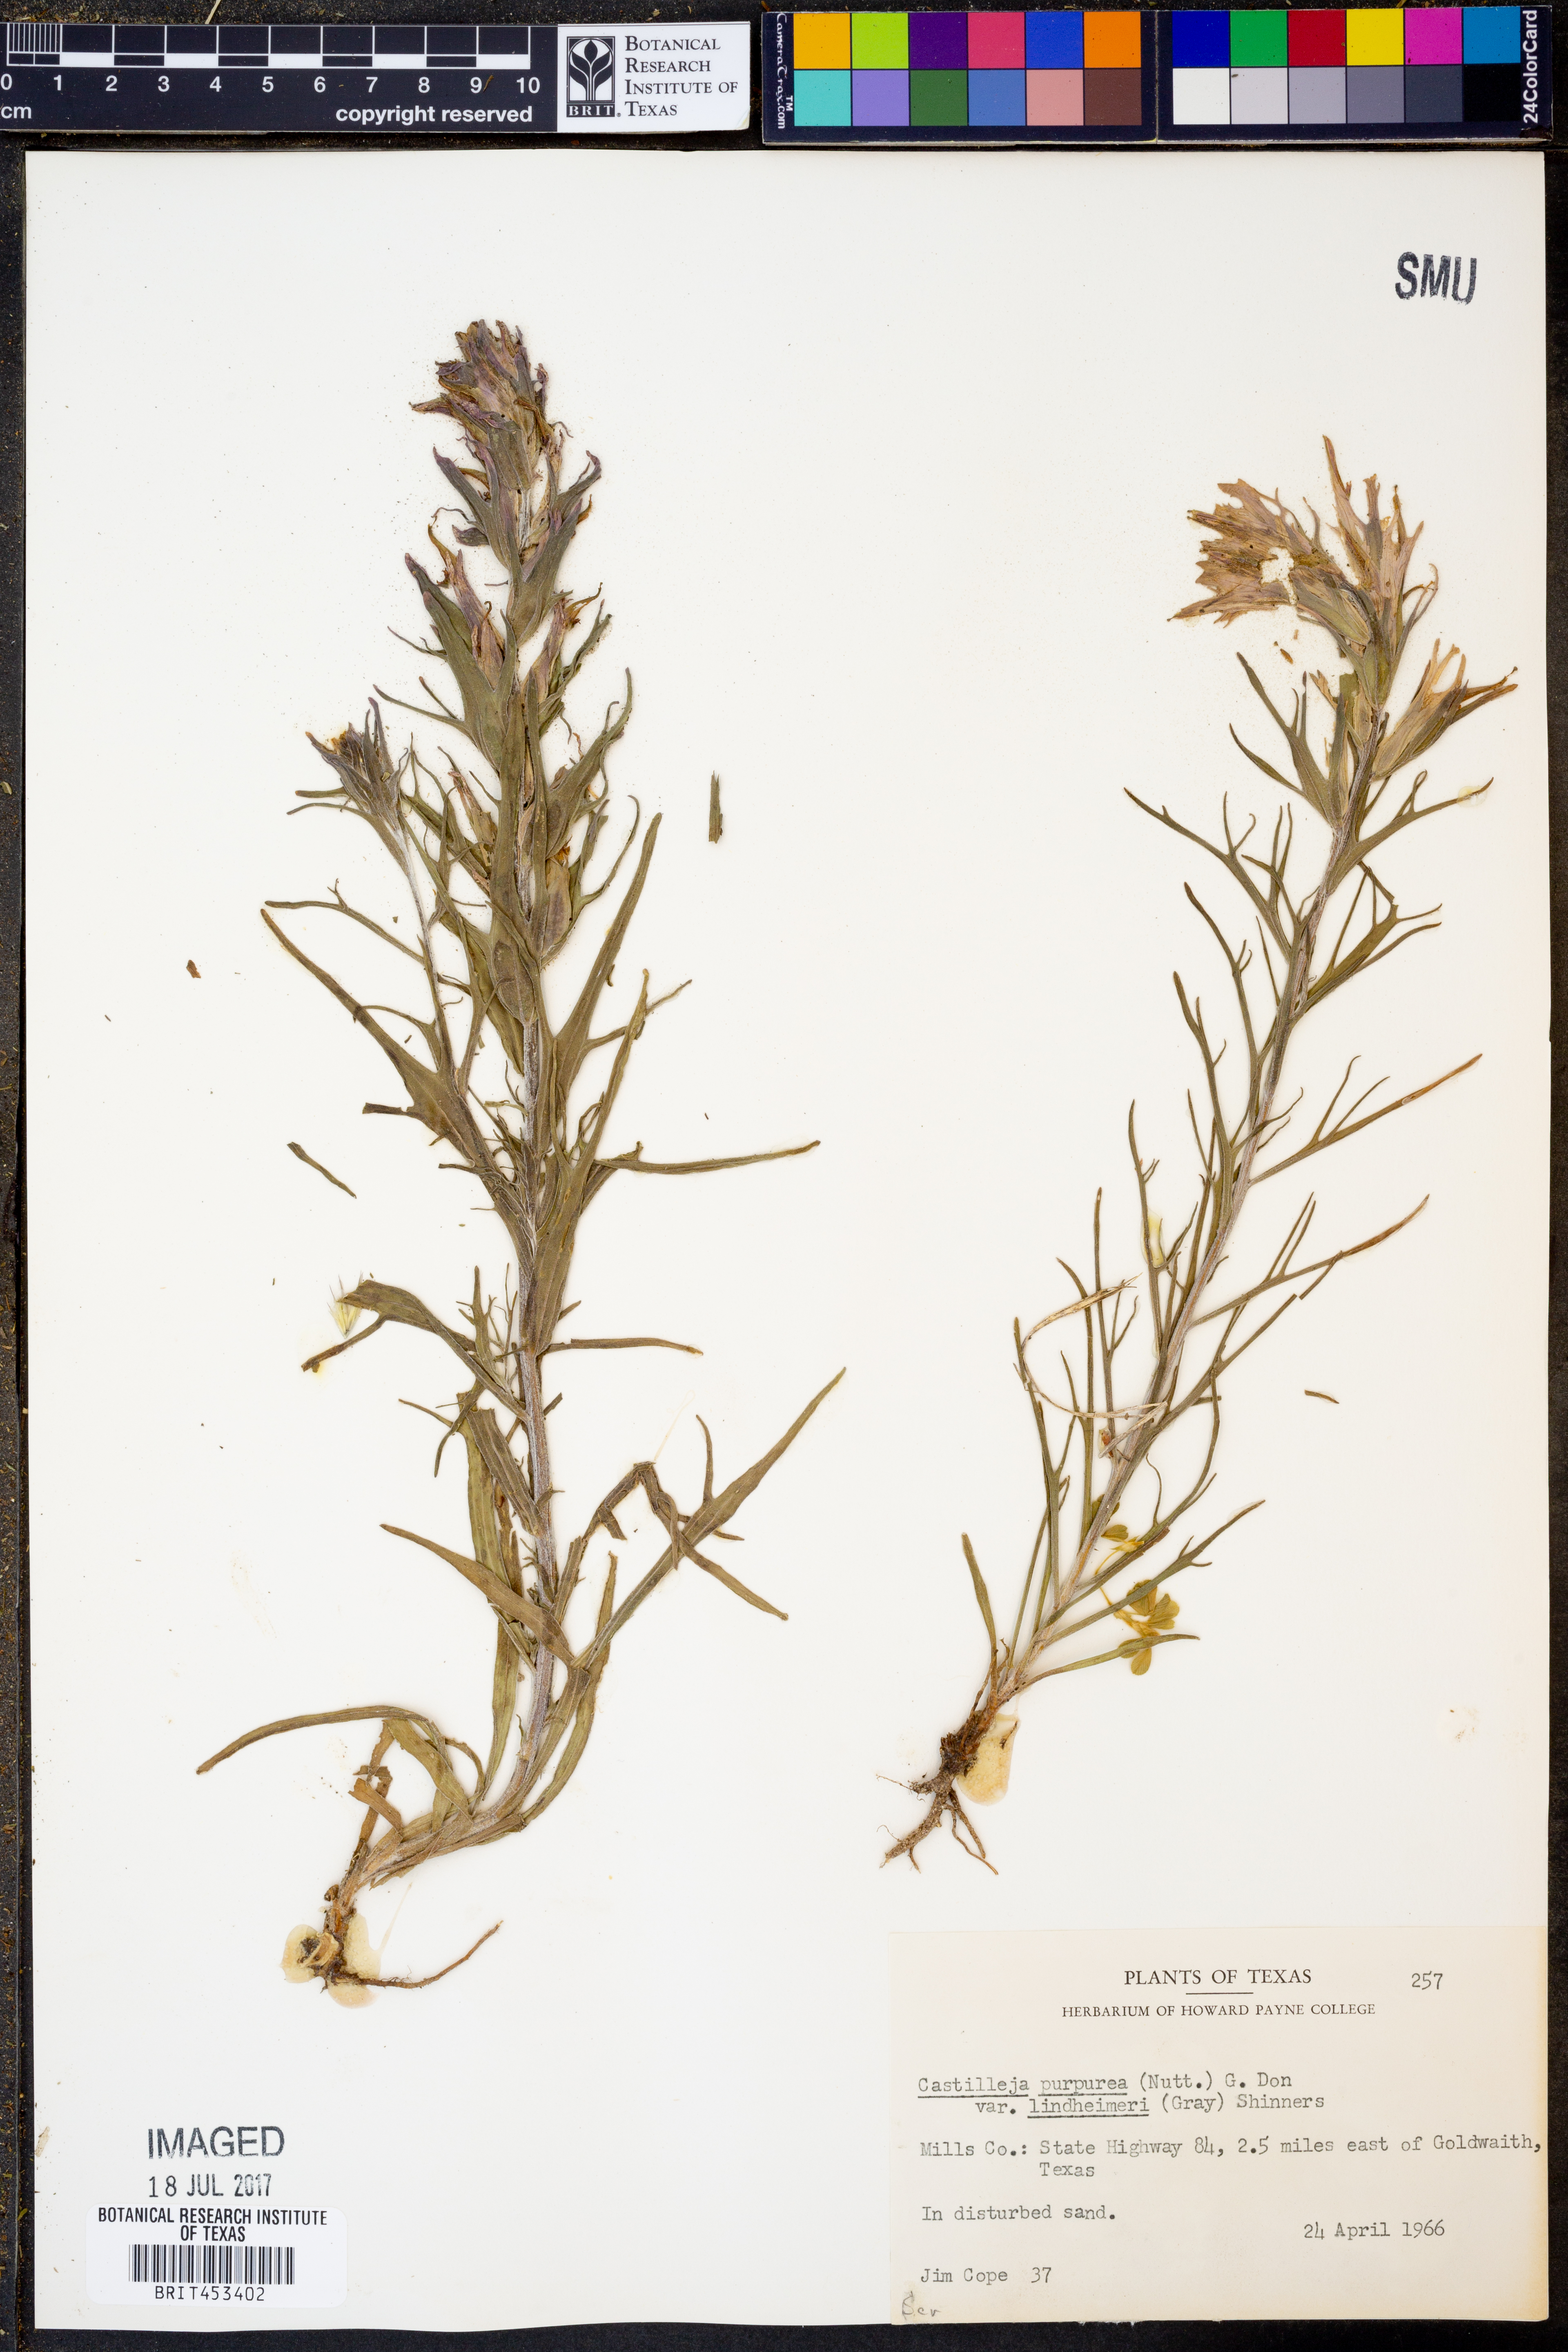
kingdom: Plantae
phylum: Tracheophyta
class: Magnoliopsida
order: Lamiales
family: Orobanchaceae
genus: Castilleja
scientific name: Castilleja lindheimeri
